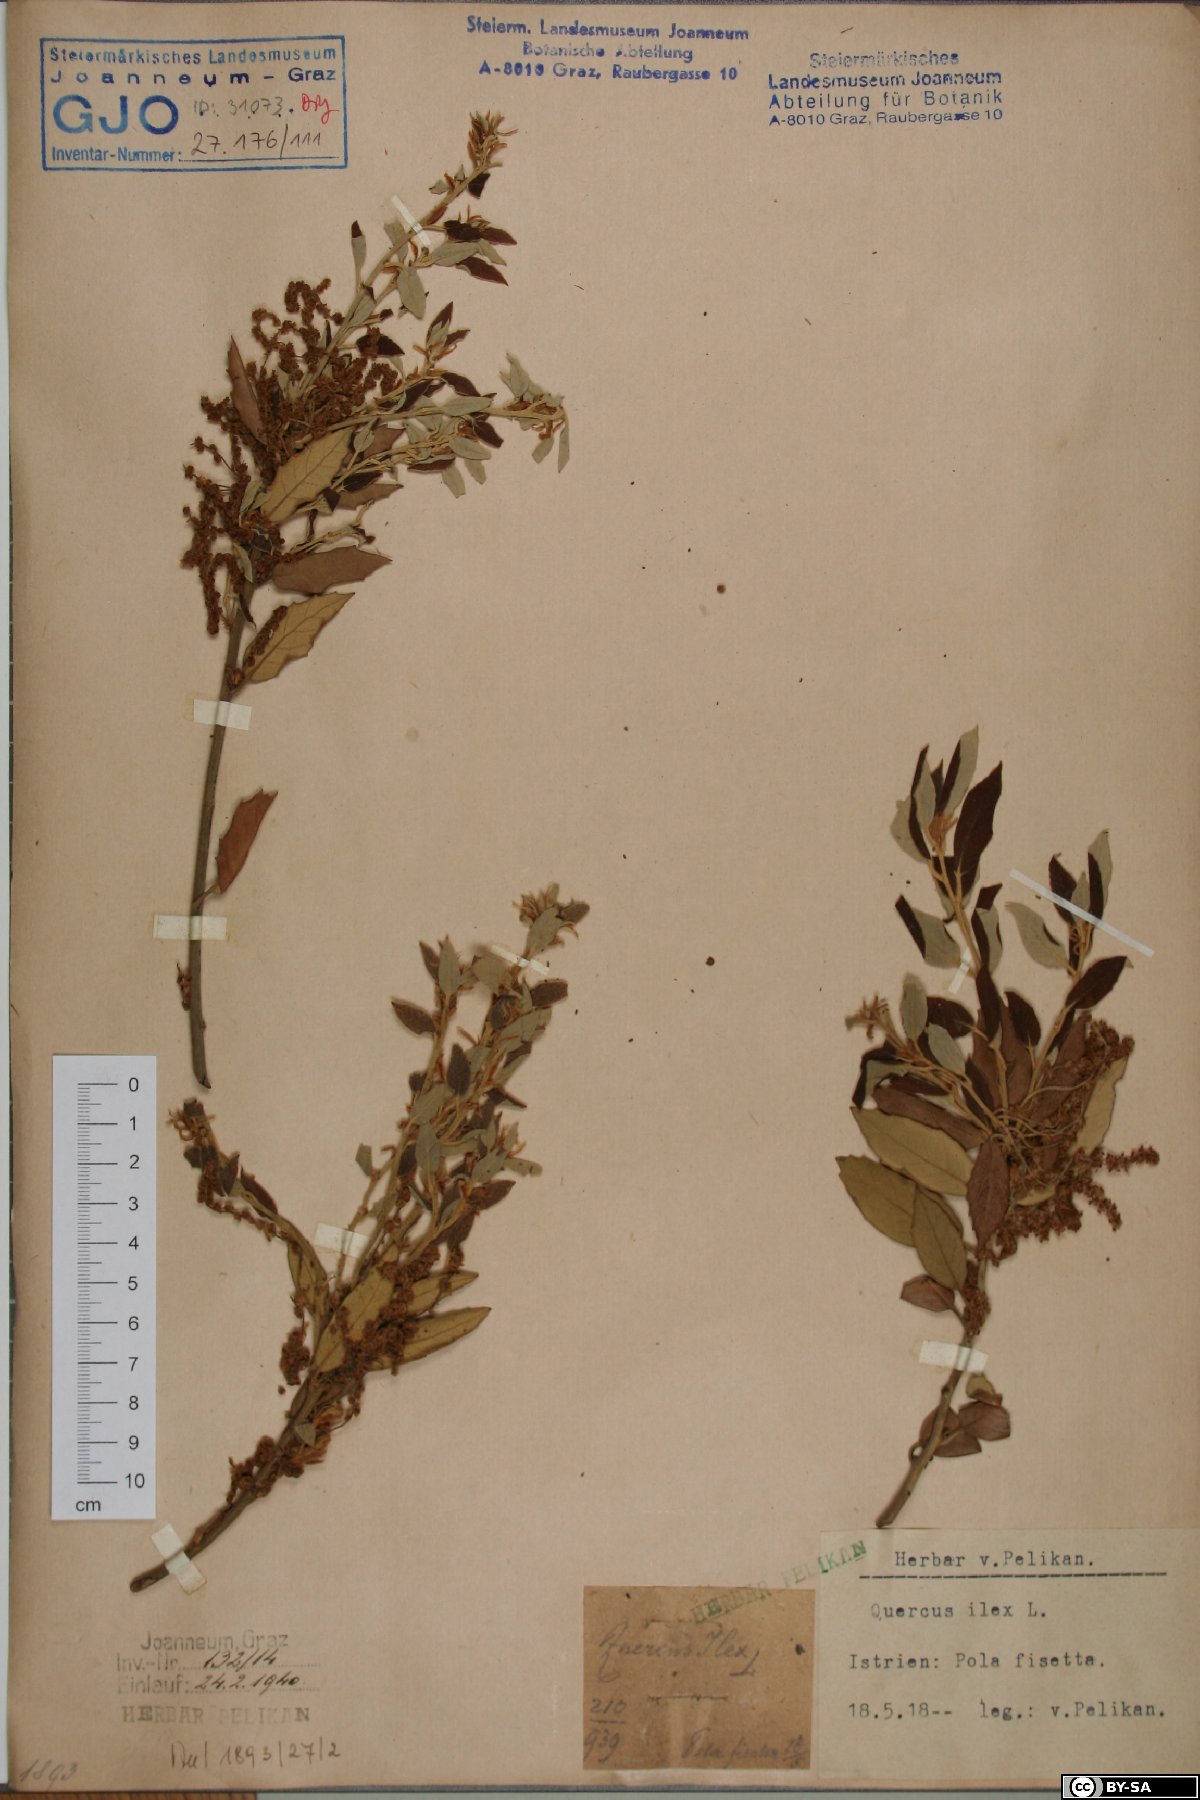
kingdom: Plantae
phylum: Tracheophyta
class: Magnoliopsida
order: Fagales
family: Fagaceae
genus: Quercus
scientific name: Quercus ilex
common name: Evergreen oak
